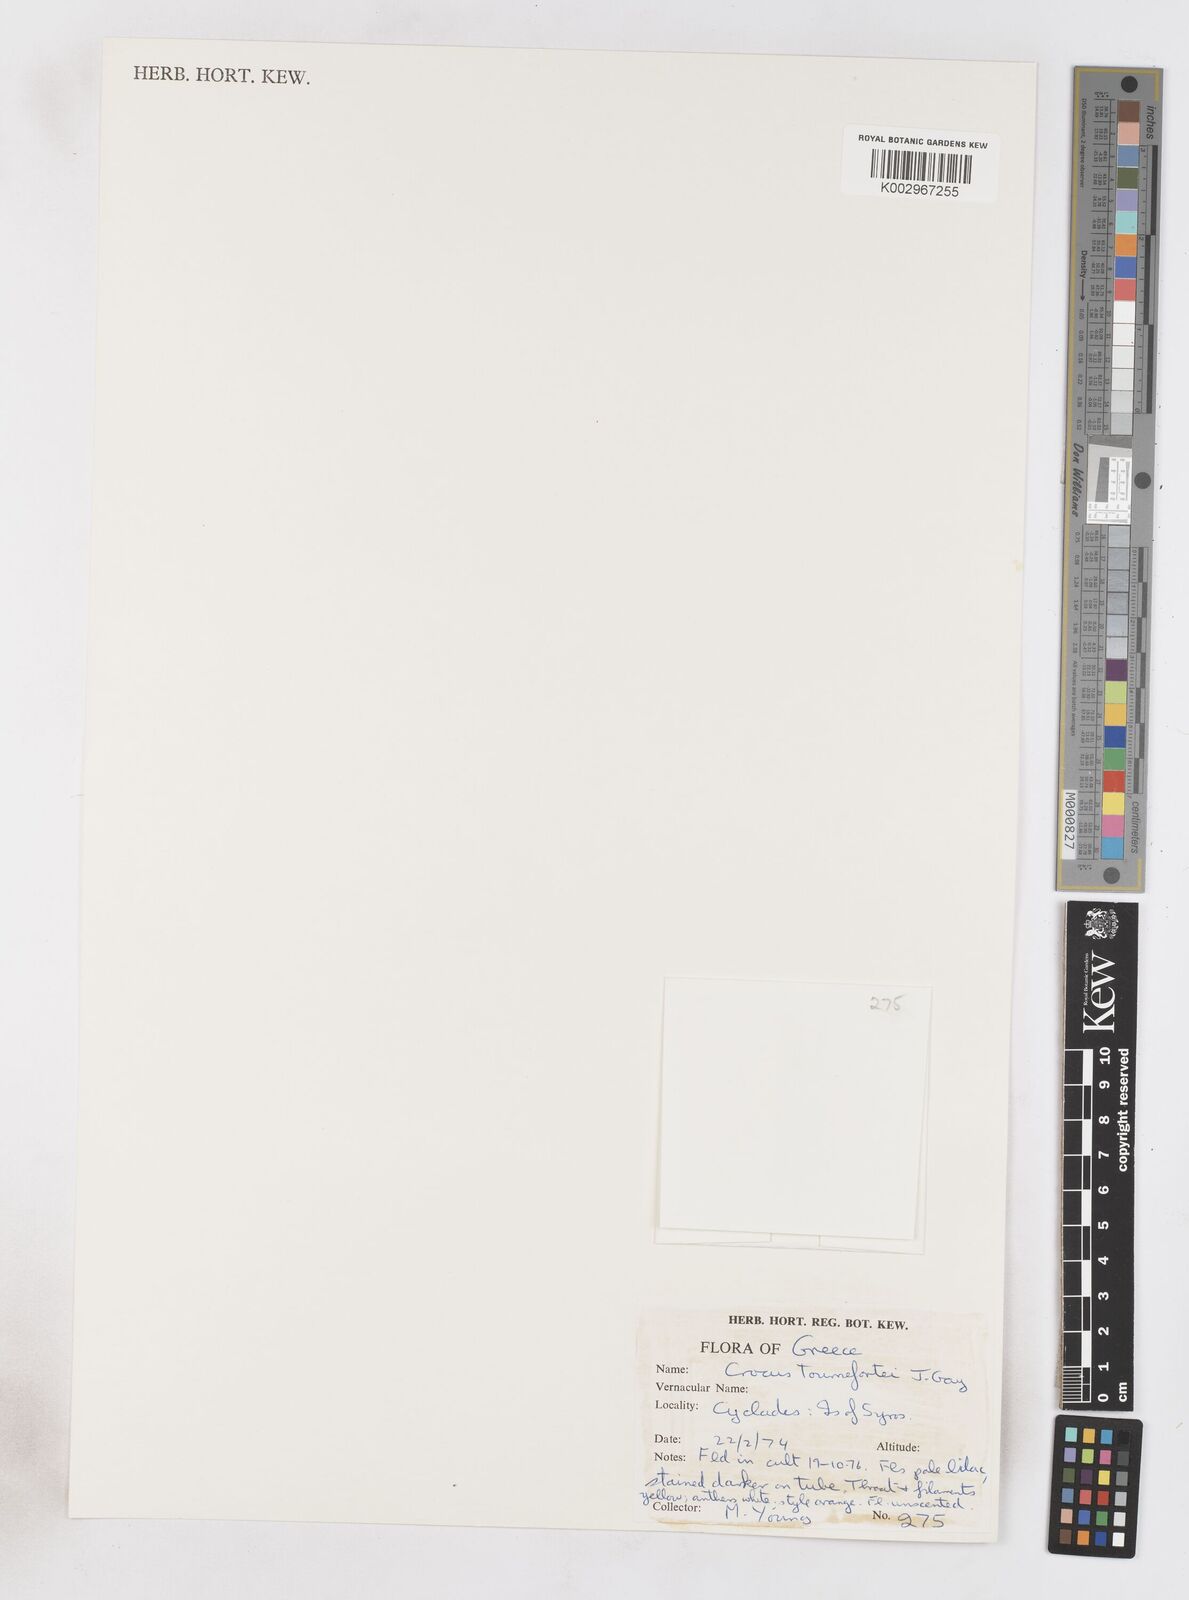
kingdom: Plantae
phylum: Tracheophyta
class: Liliopsida
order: Asparagales
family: Iridaceae
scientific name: Iridaceae
